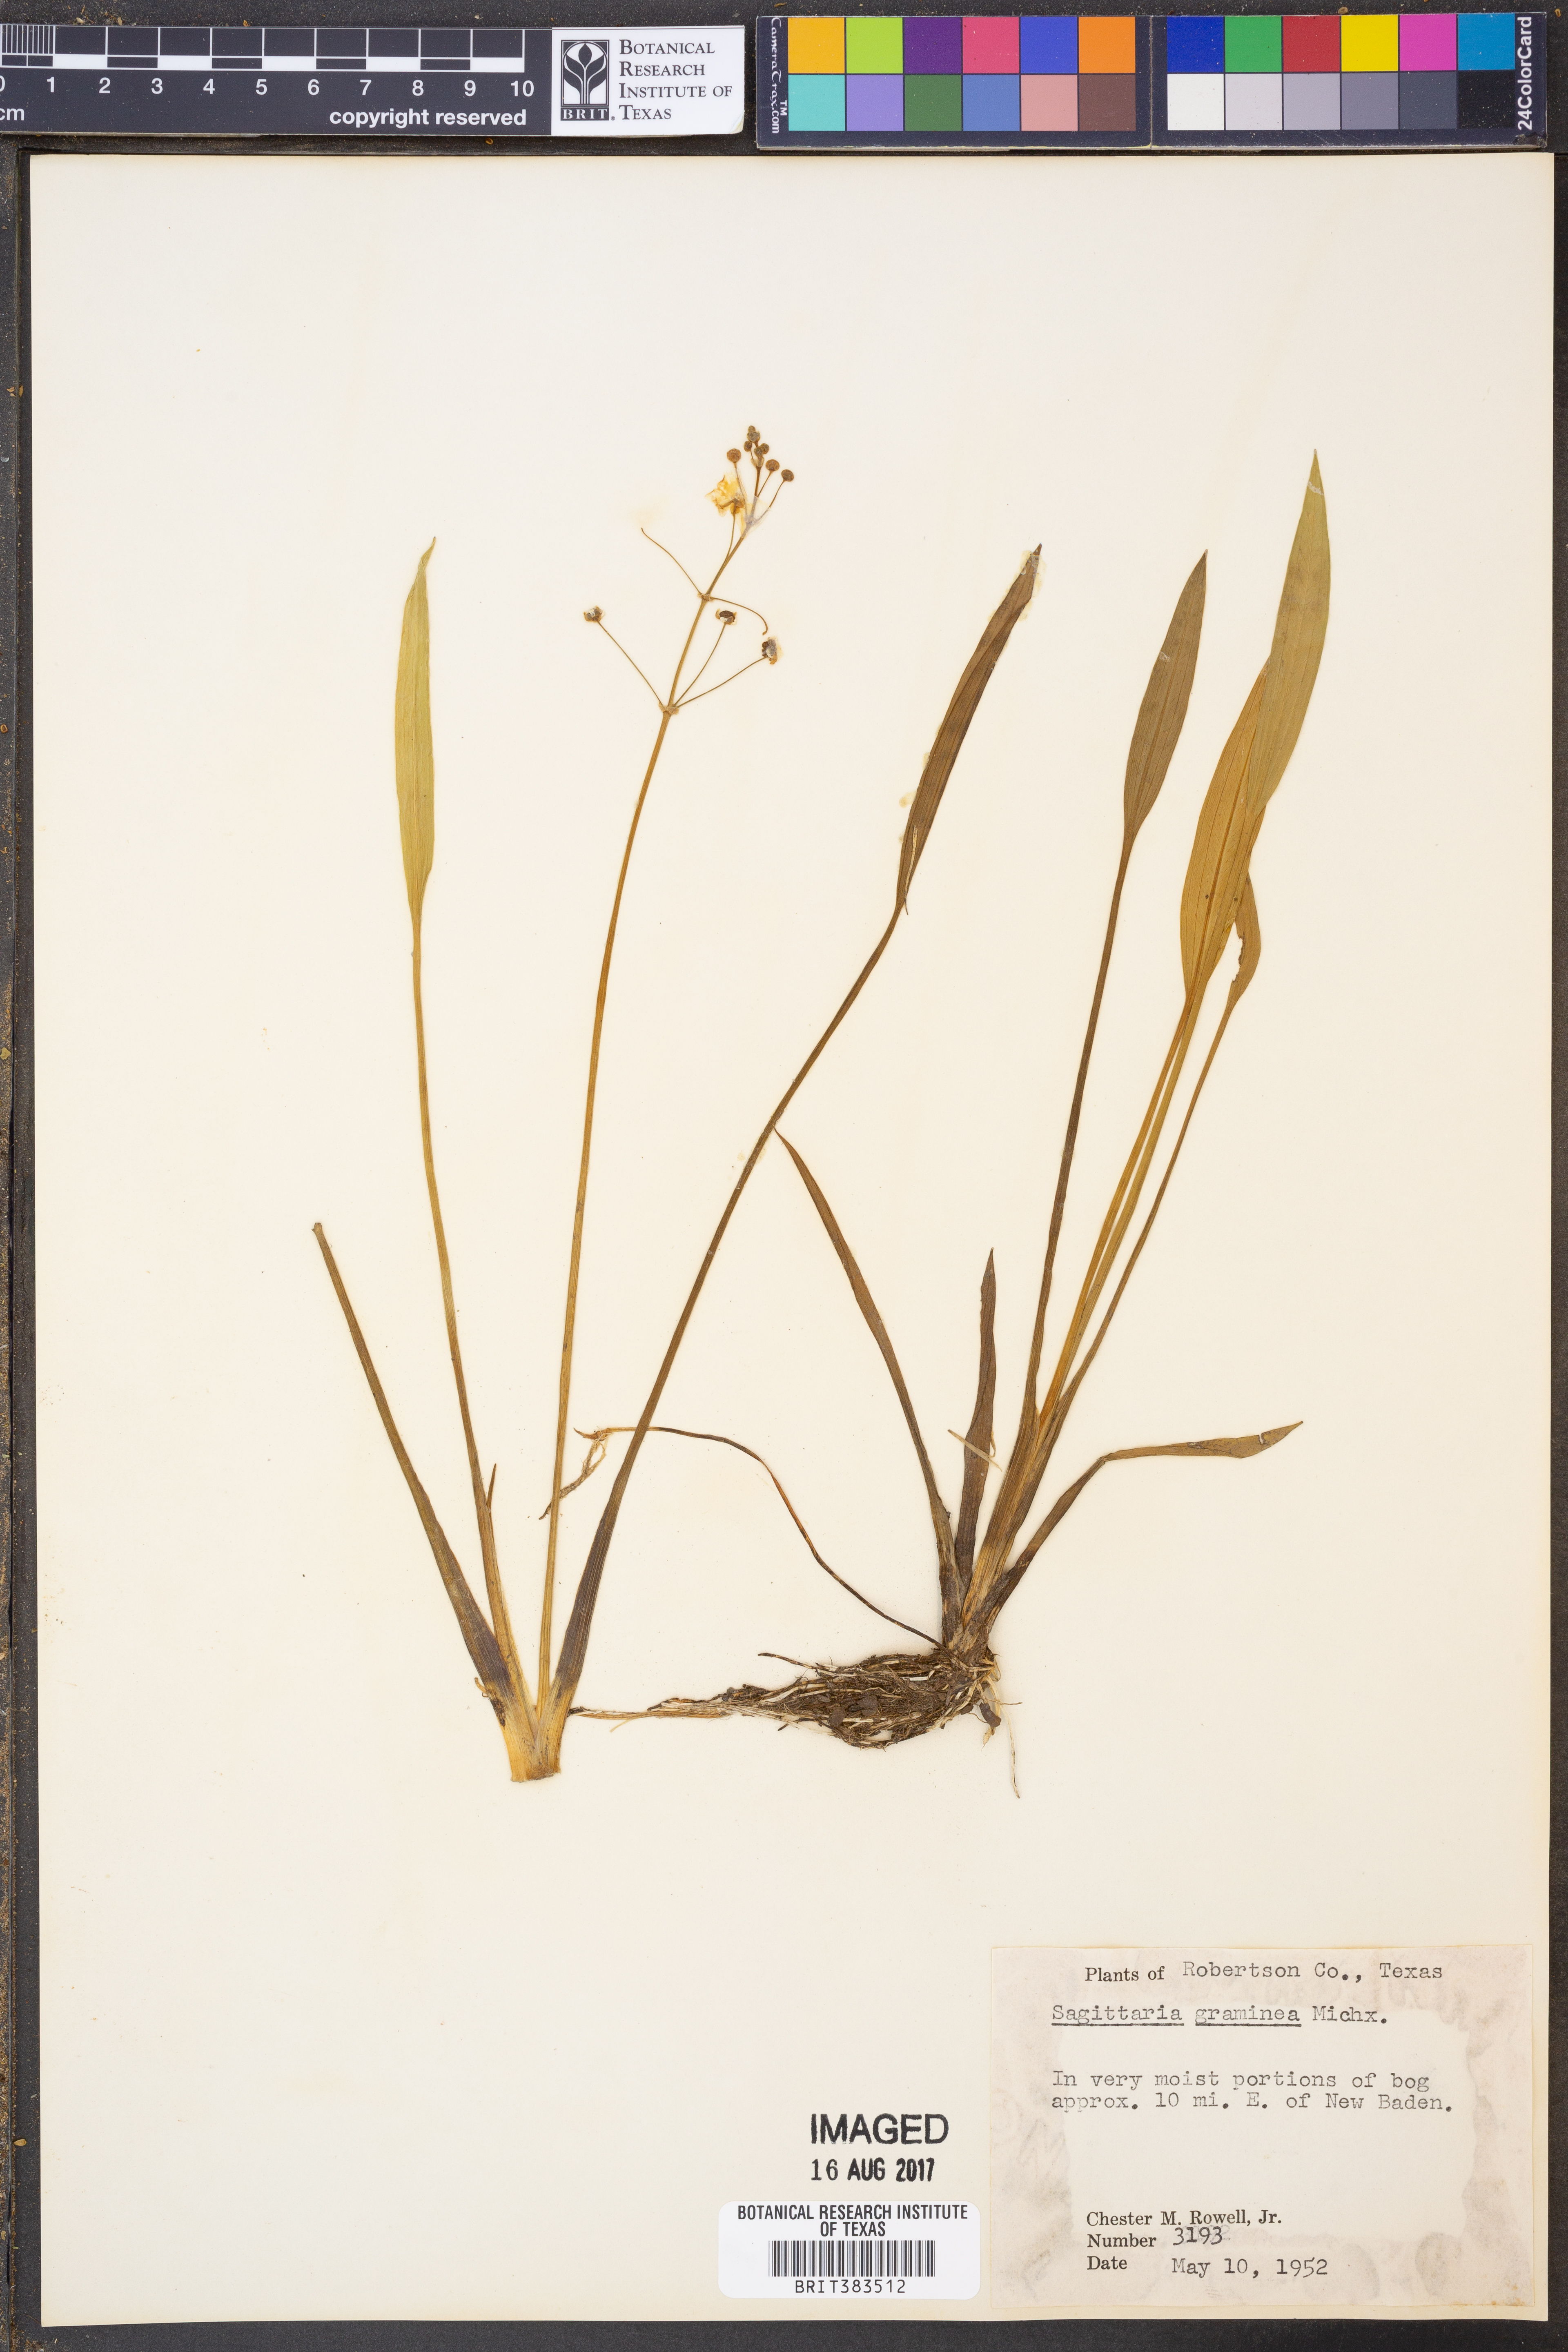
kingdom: Plantae
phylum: Tracheophyta
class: Liliopsida
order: Alismatales
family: Alismataceae
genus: Sagittaria
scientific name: Sagittaria graminea
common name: Grass-leaved arrowhead
